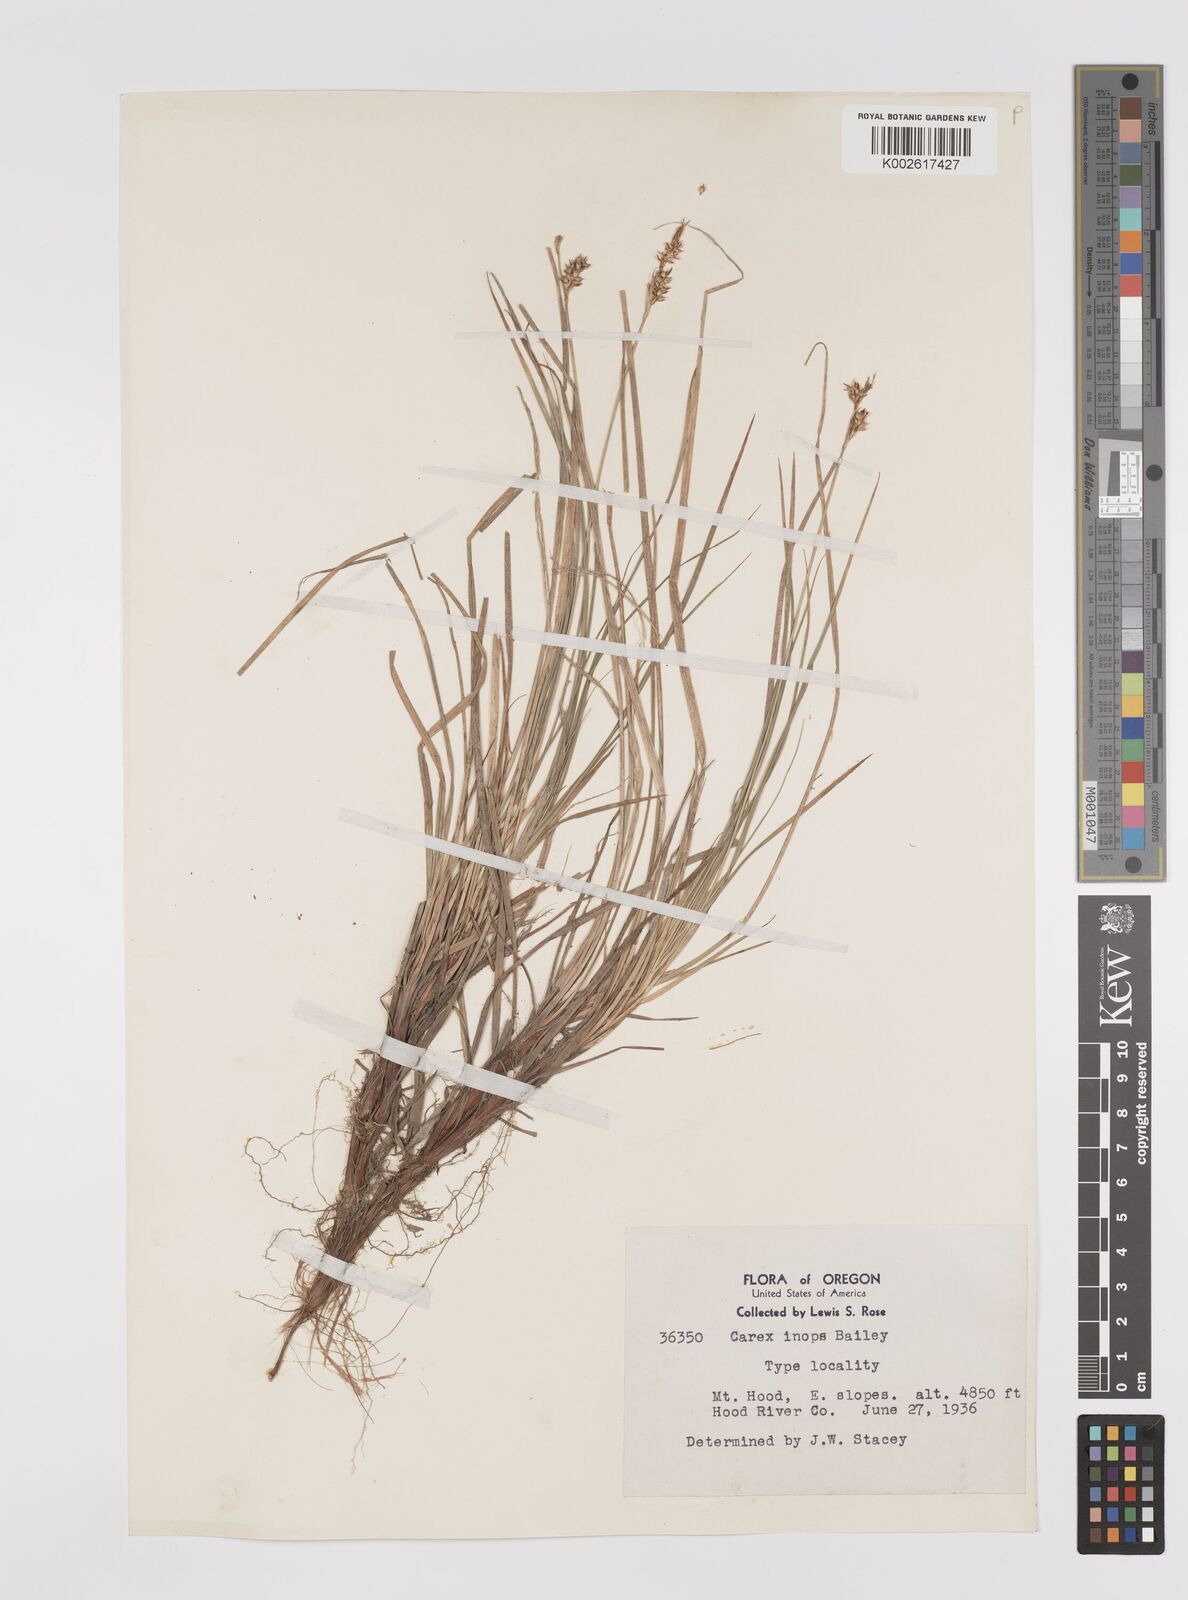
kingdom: Plantae
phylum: Tracheophyta
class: Liliopsida
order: Poales
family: Cyperaceae
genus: Carex
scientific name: Carex inops
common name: Long-stolon sedge
